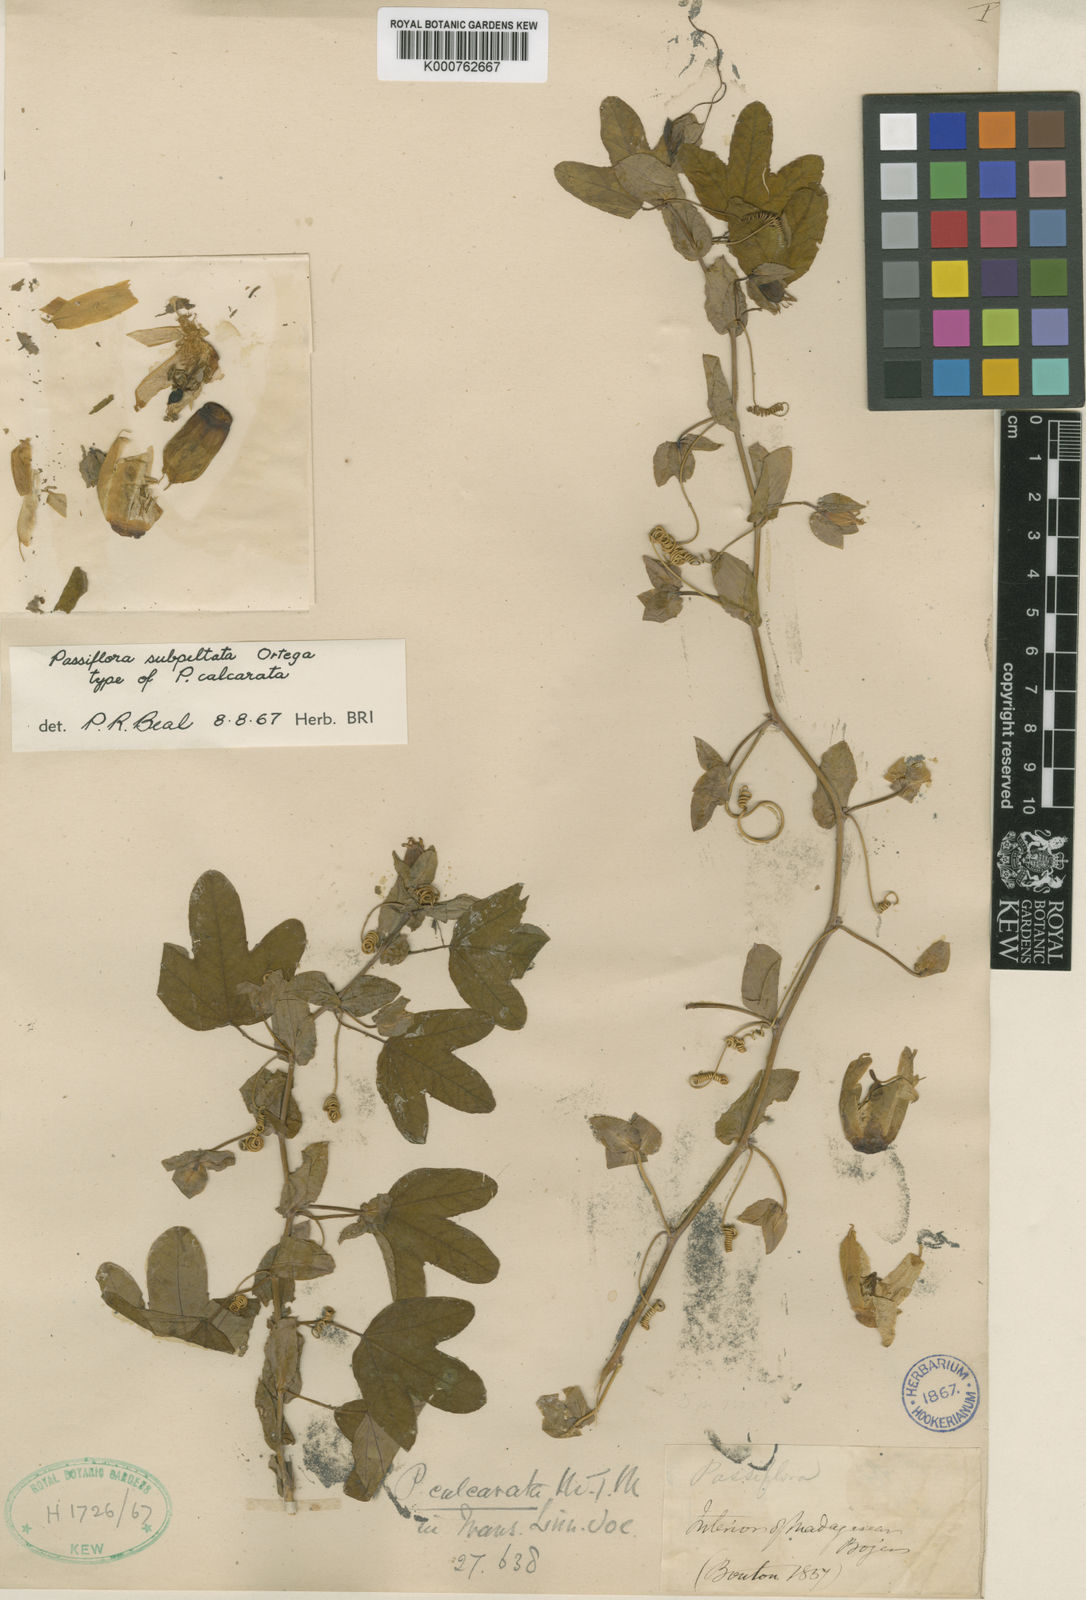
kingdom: Plantae
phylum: Tracheophyta
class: Magnoliopsida
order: Malpighiales
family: Passifloraceae
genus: Passiflora
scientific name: Passiflora subpeltata
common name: White passionflower
